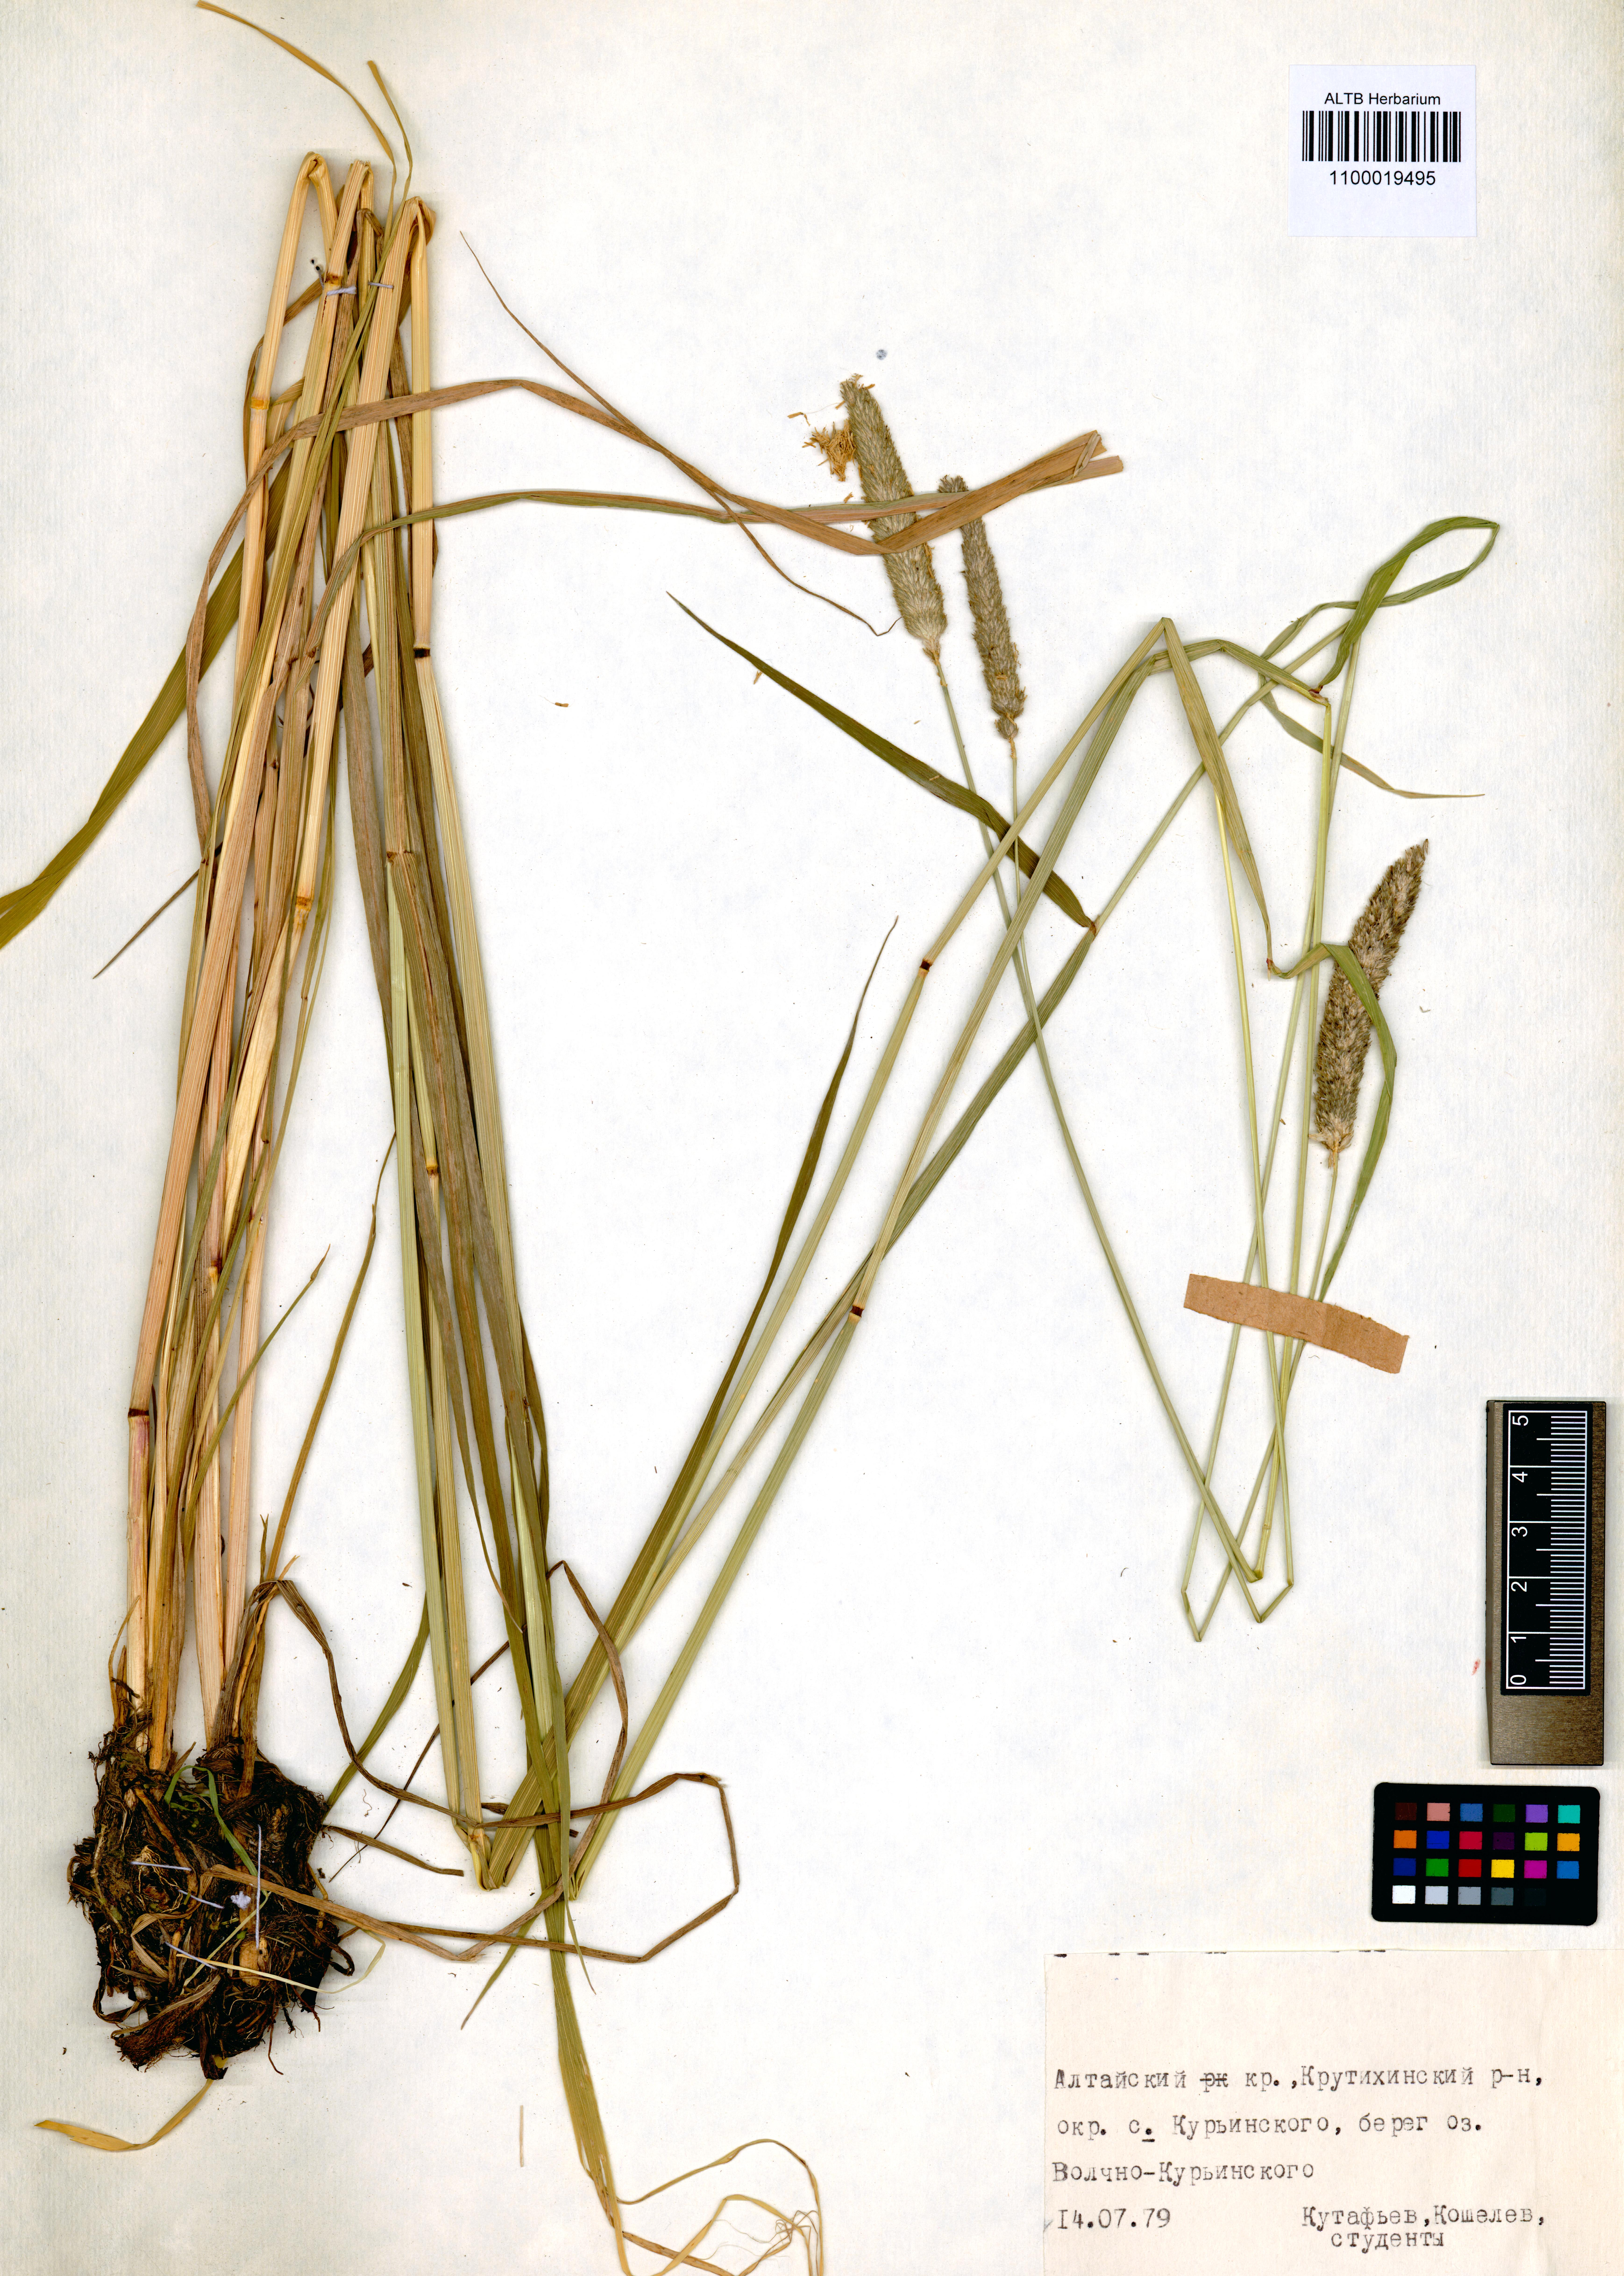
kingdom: Plantae
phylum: Tracheophyta
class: Liliopsida
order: Poales
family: Poaceae
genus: Alopecurus
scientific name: Alopecurus arundinaceus
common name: Creeping meadow foxtail
